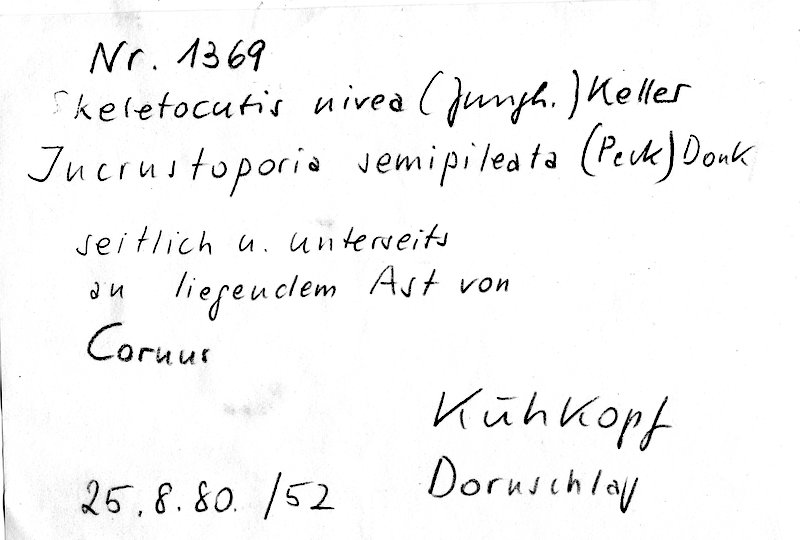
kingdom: Plantae
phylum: Tracheophyta
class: Magnoliopsida
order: Cornales
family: Cornaceae
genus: Cornus
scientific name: Cornus
